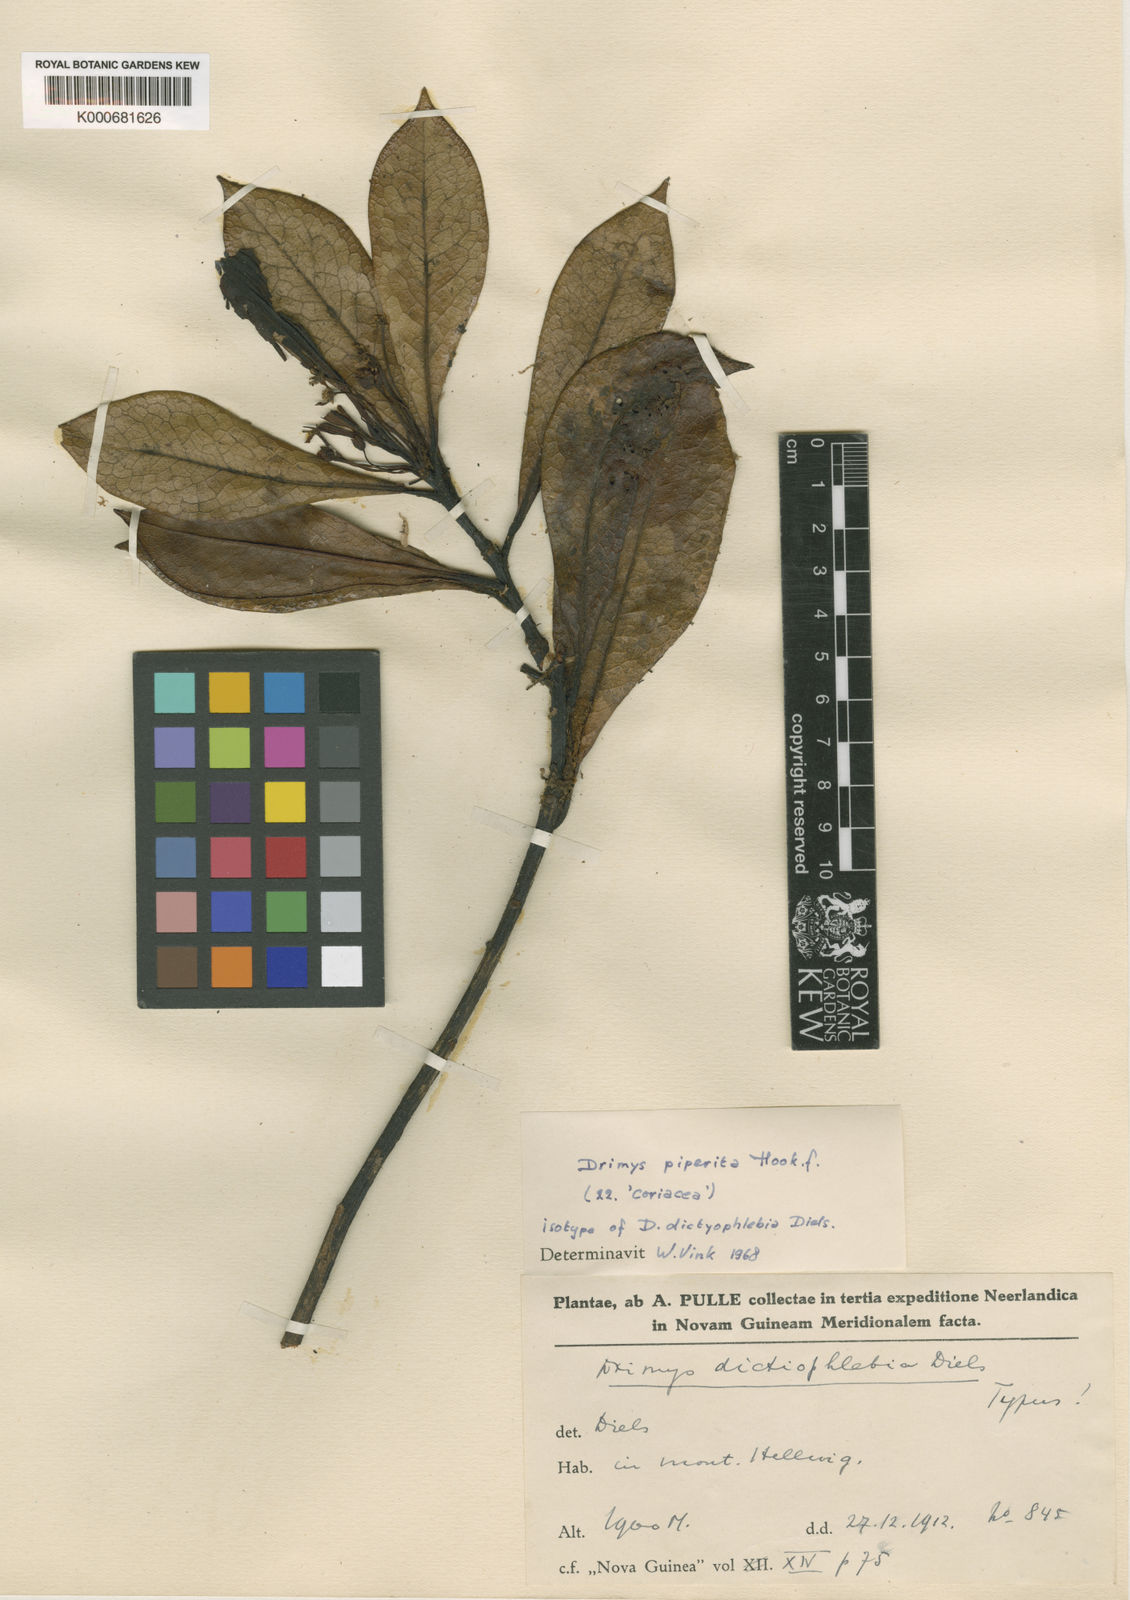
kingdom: Plantae
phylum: Tracheophyta
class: Magnoliopsida
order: Canellales
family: Winteraceae
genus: Drimys
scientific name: Drimys piperita
